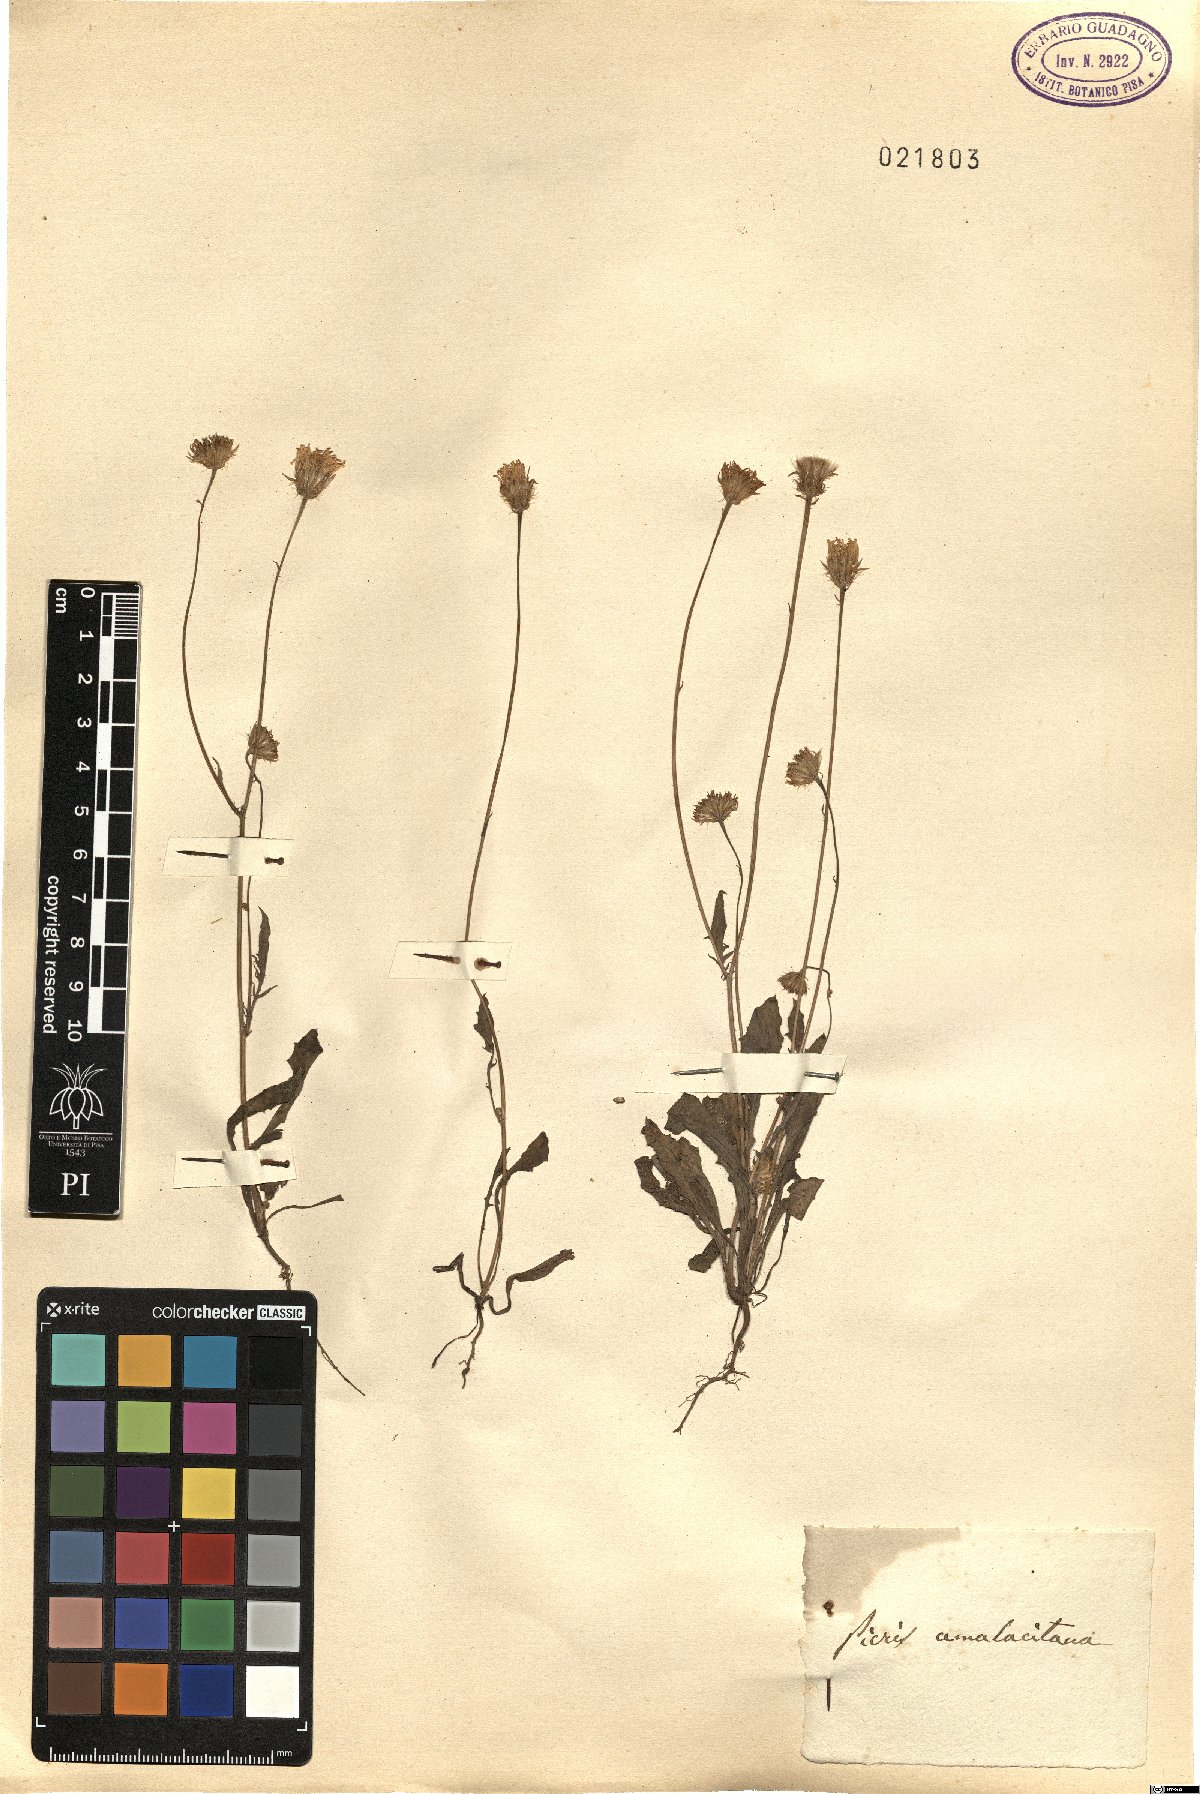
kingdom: Plantae
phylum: Tracheophyta
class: Magnoliopsida
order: Asterales
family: Asteraceae
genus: Picris
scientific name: Picris amalecitana
